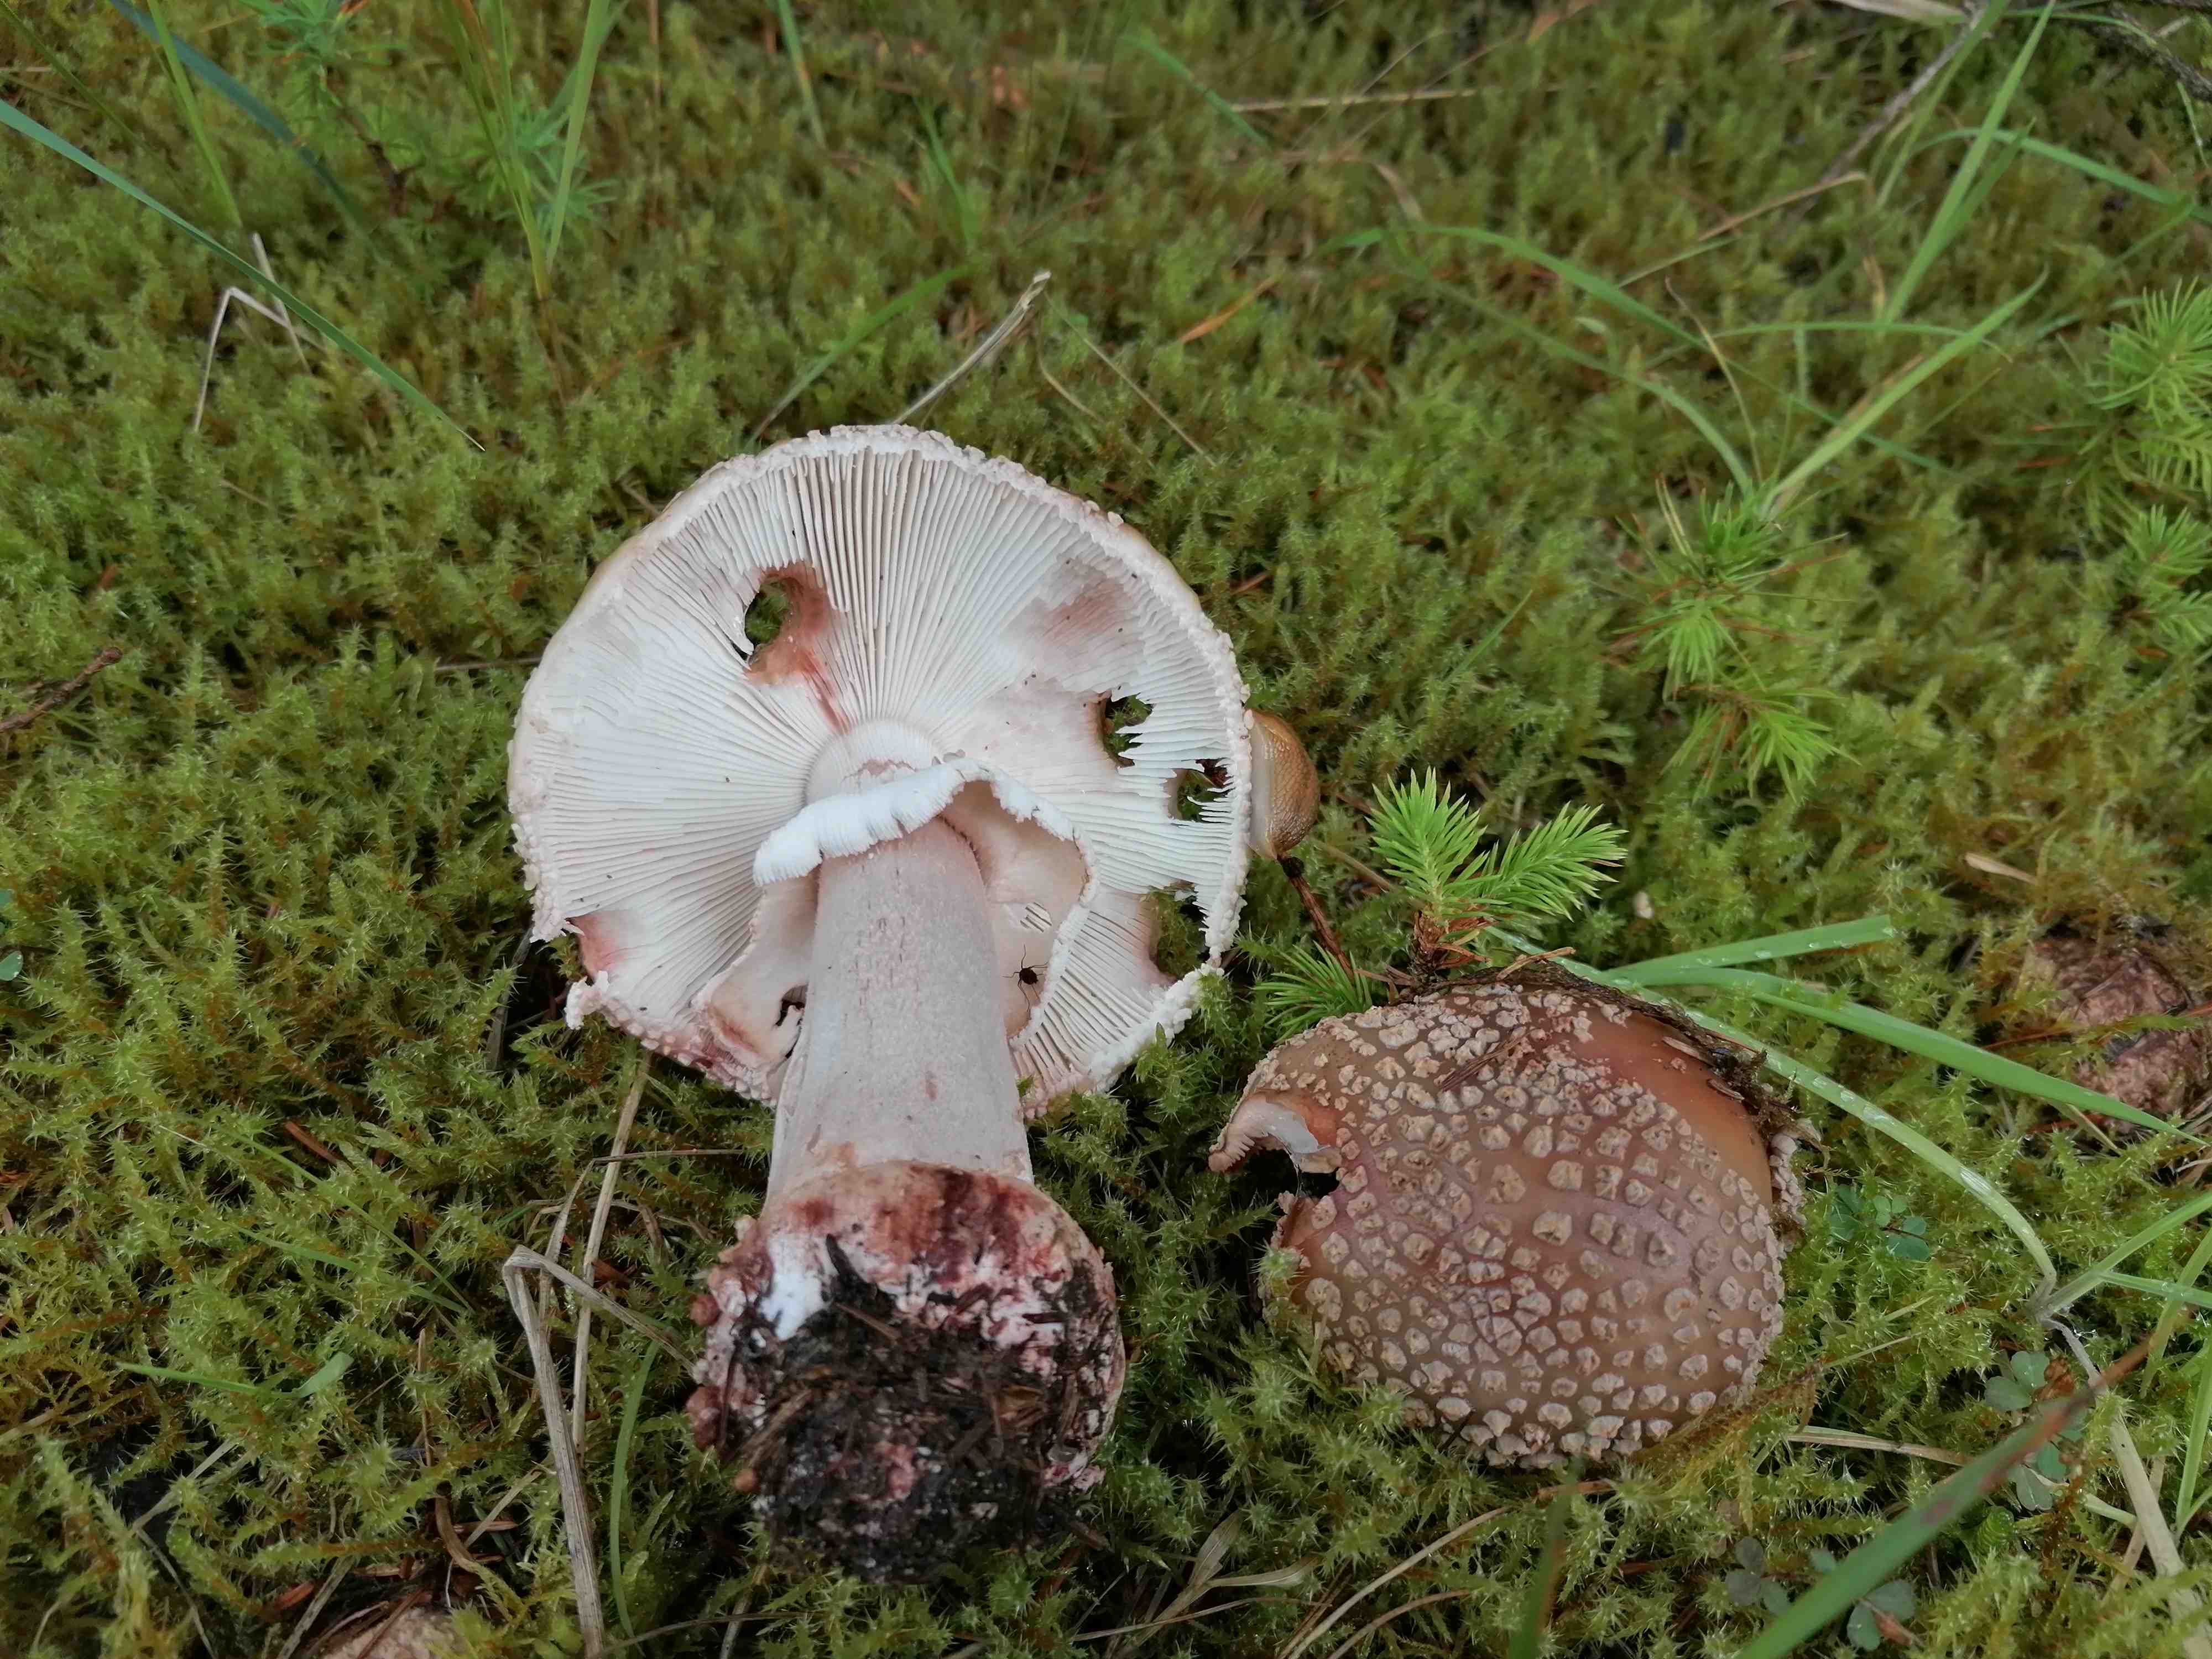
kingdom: Fungi
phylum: Basidiomycota
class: Agaricomycetes
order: Agaricales
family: Amanitaceae
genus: Amanita
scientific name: Amanita rubescens
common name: rødmende fluesvamp
